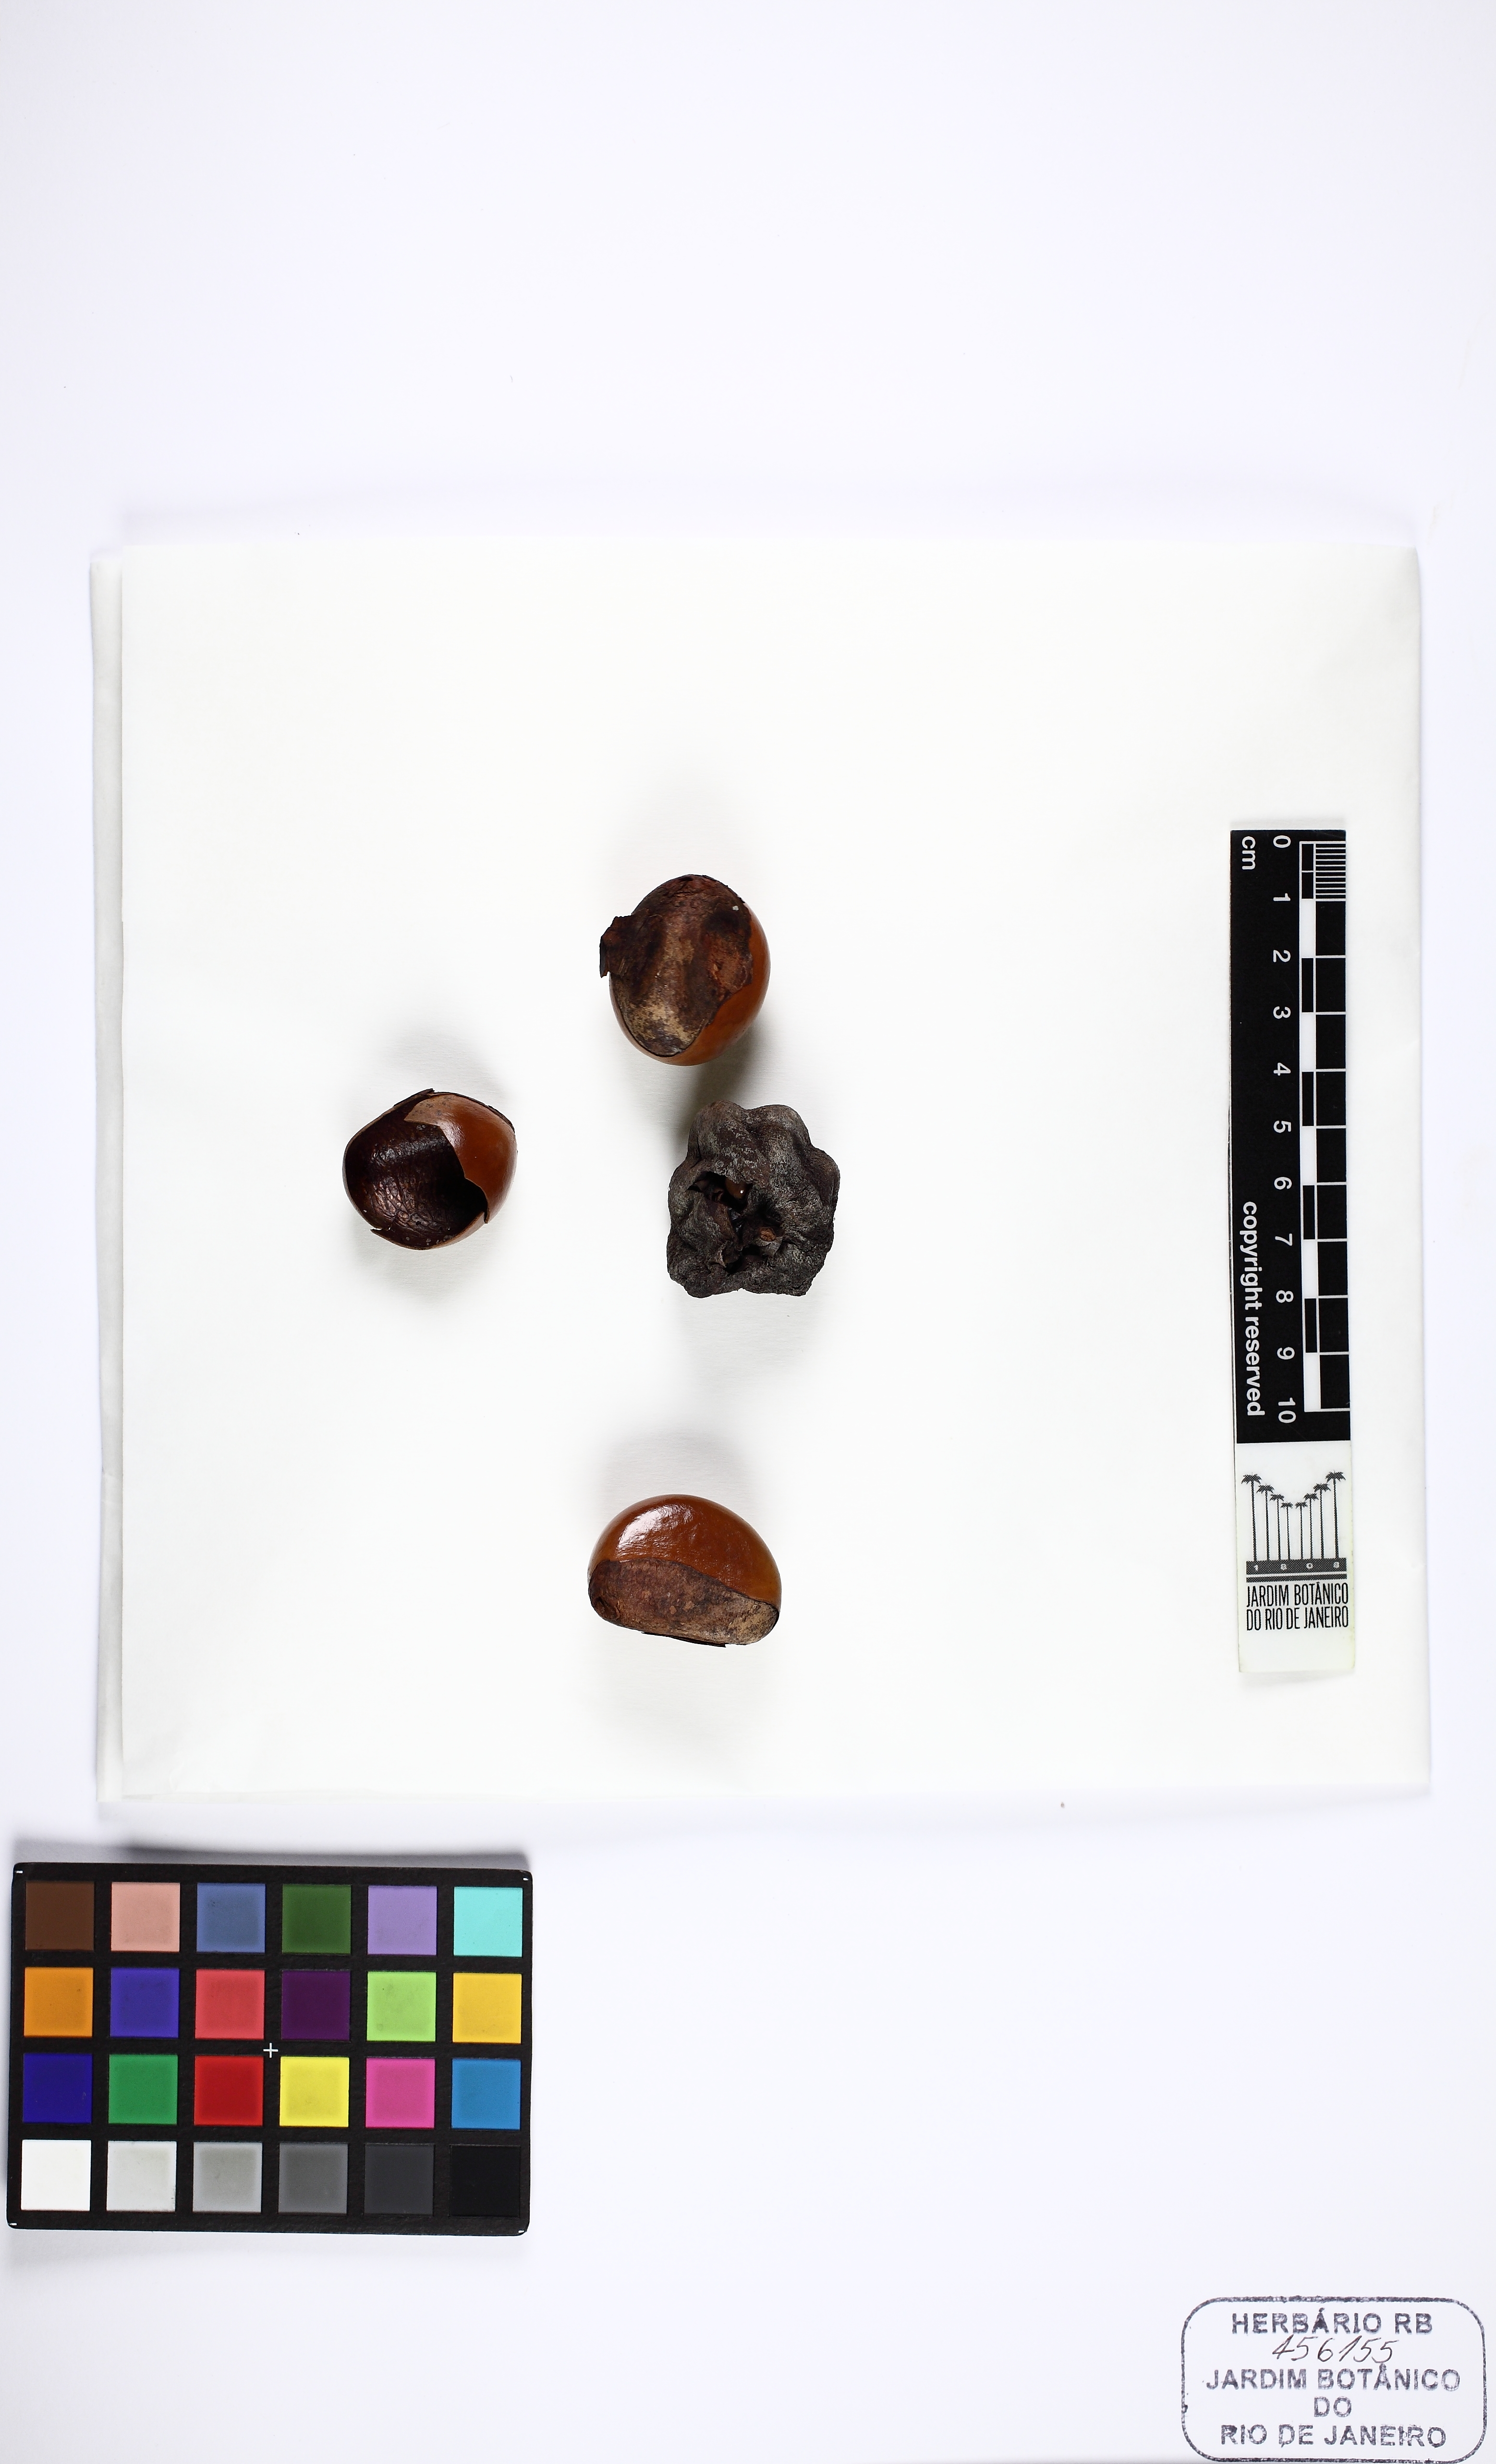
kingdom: Plantae
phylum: Tracheophyta
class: Magnoliopsida
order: Ericales
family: Sapotaceae
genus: Pouteria
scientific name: Pouteria grandiflora
